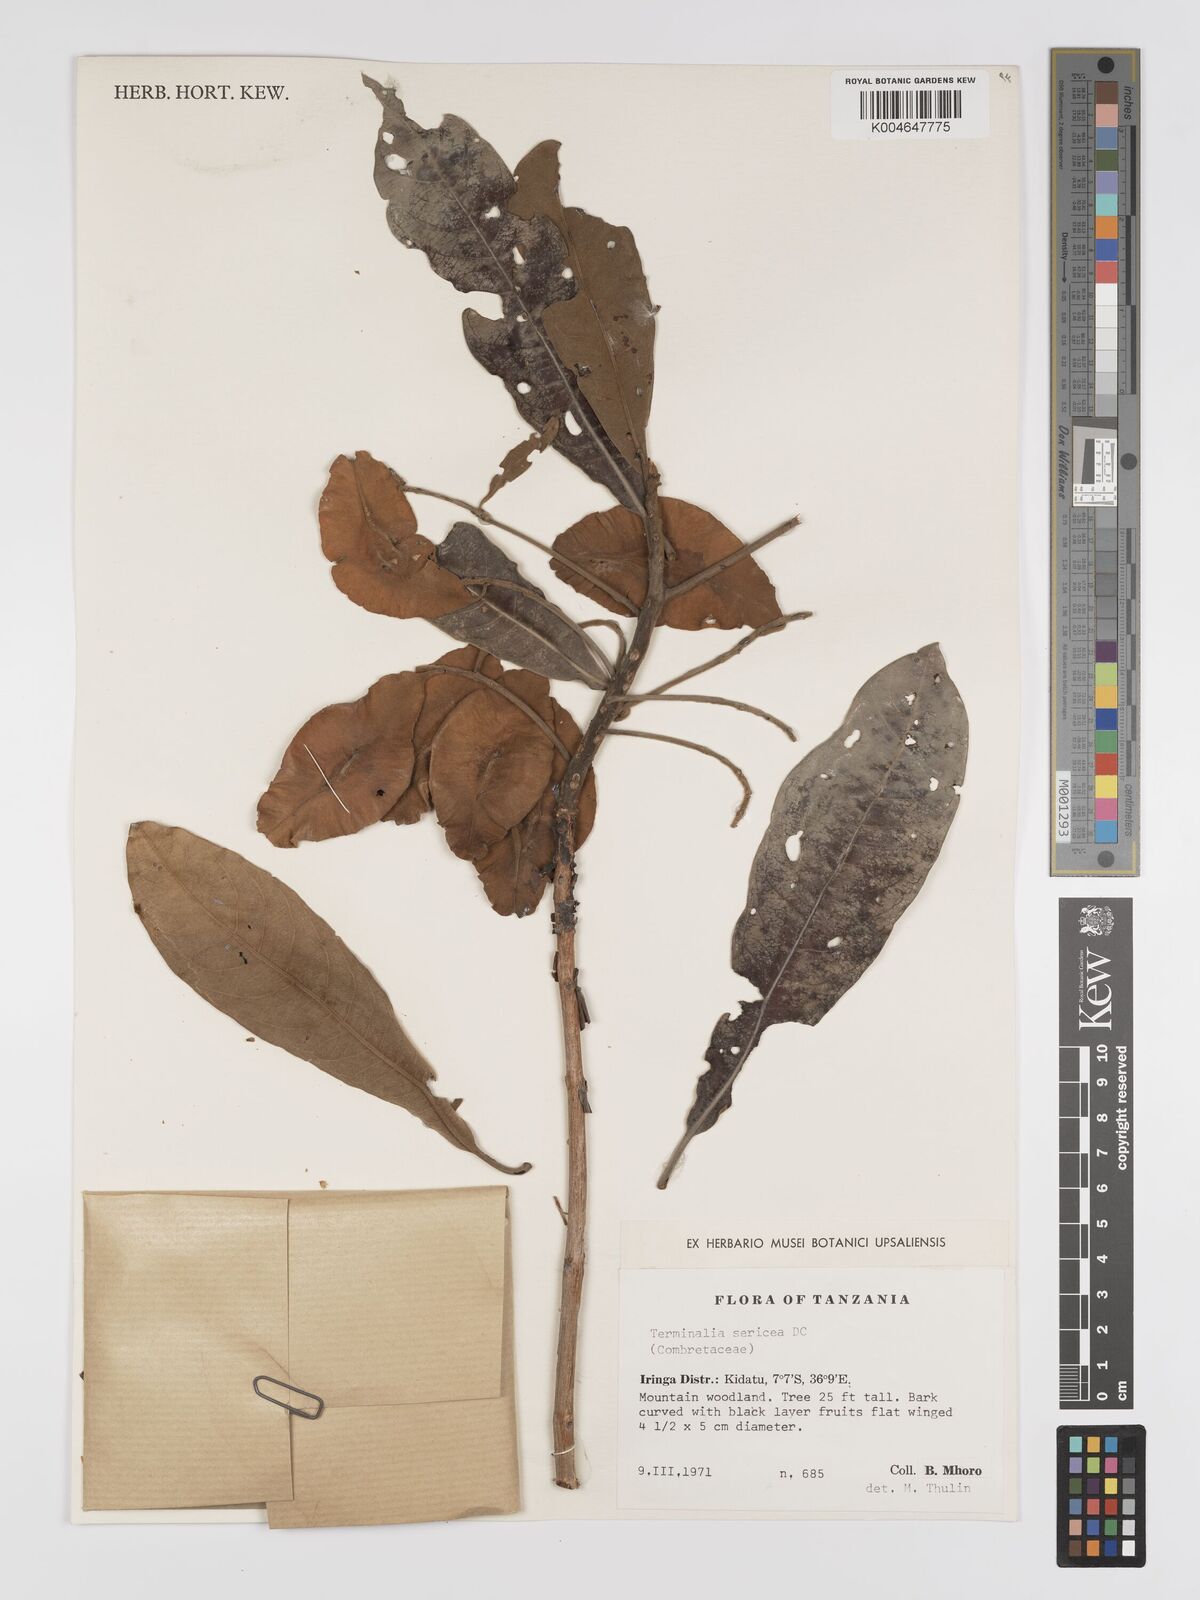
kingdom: Plantae
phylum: Tracheophyta
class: Magnoliopsida
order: Myrtales
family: Combretaceae
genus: Terminalia
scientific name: Terminalia
